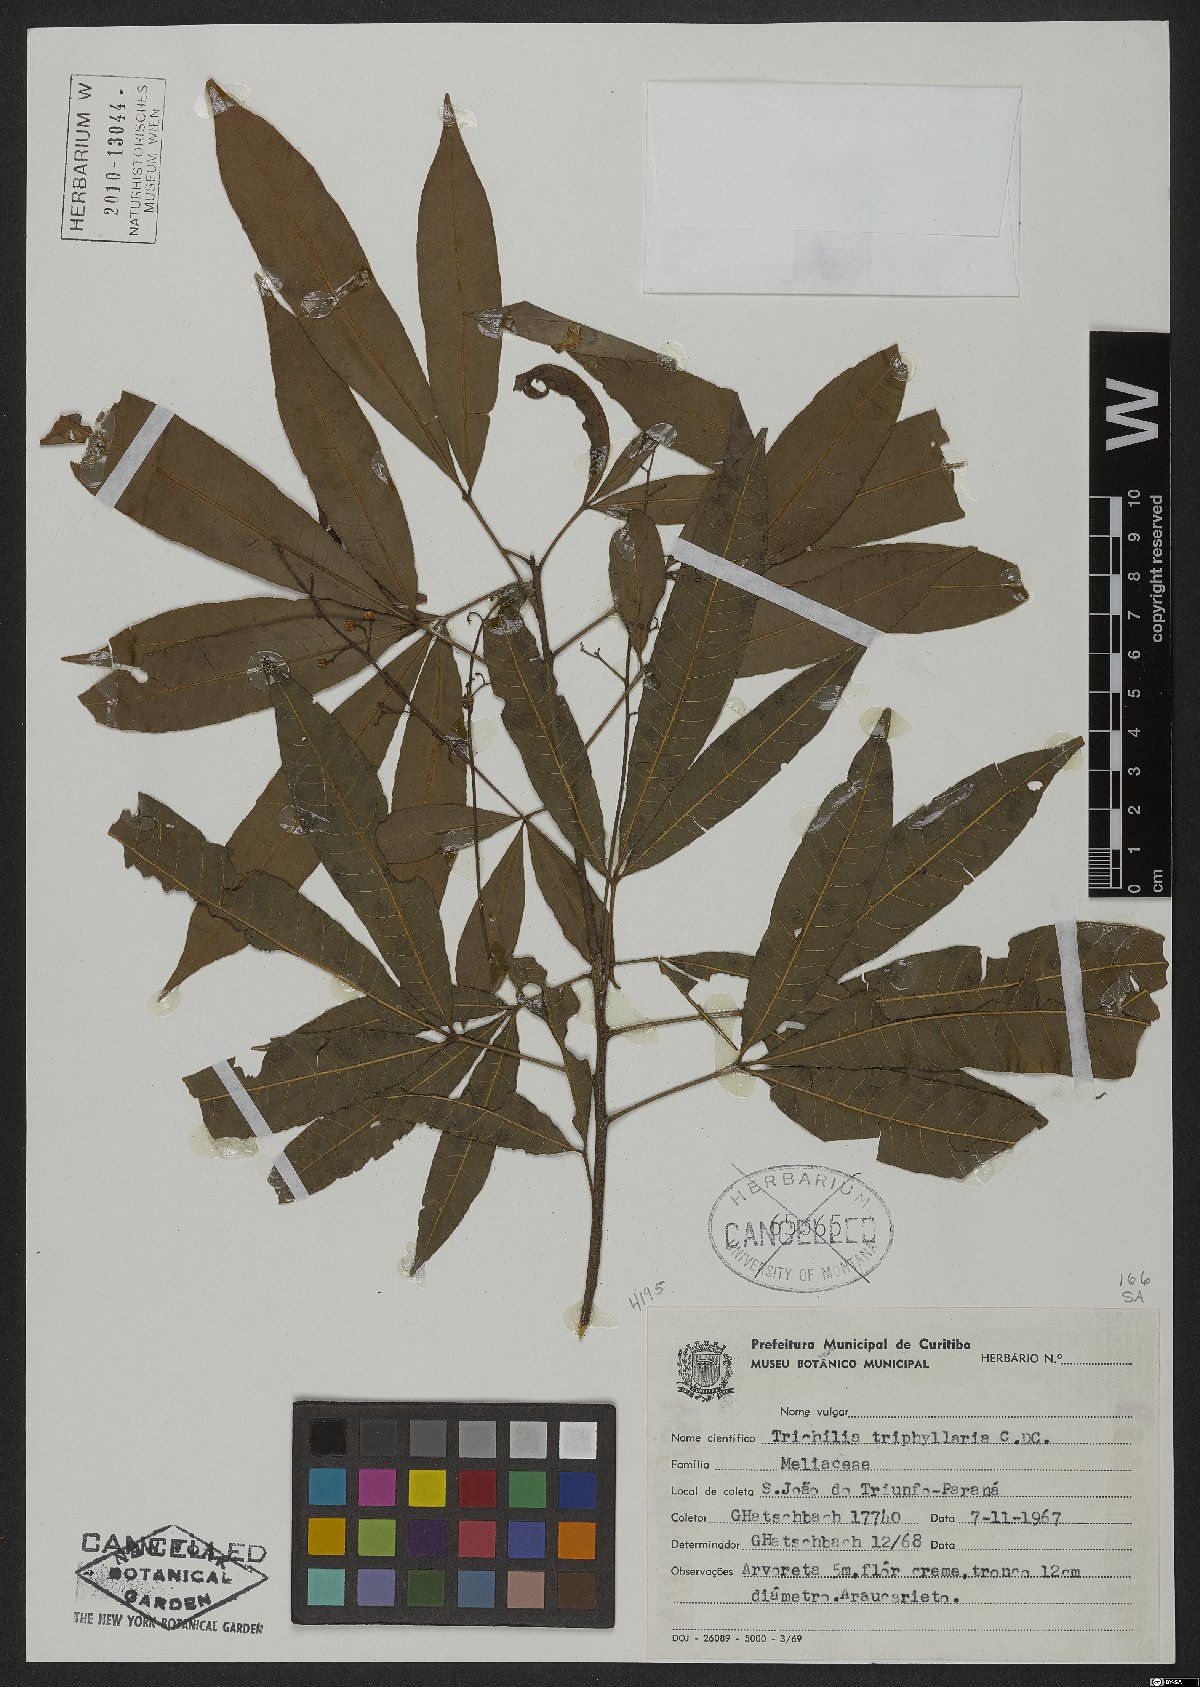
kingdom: Plantae
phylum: Tracheophyta
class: Magnoliopsida
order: Sapindales
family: Meliaceae
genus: Trichilia
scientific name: Trichilia claussenii
